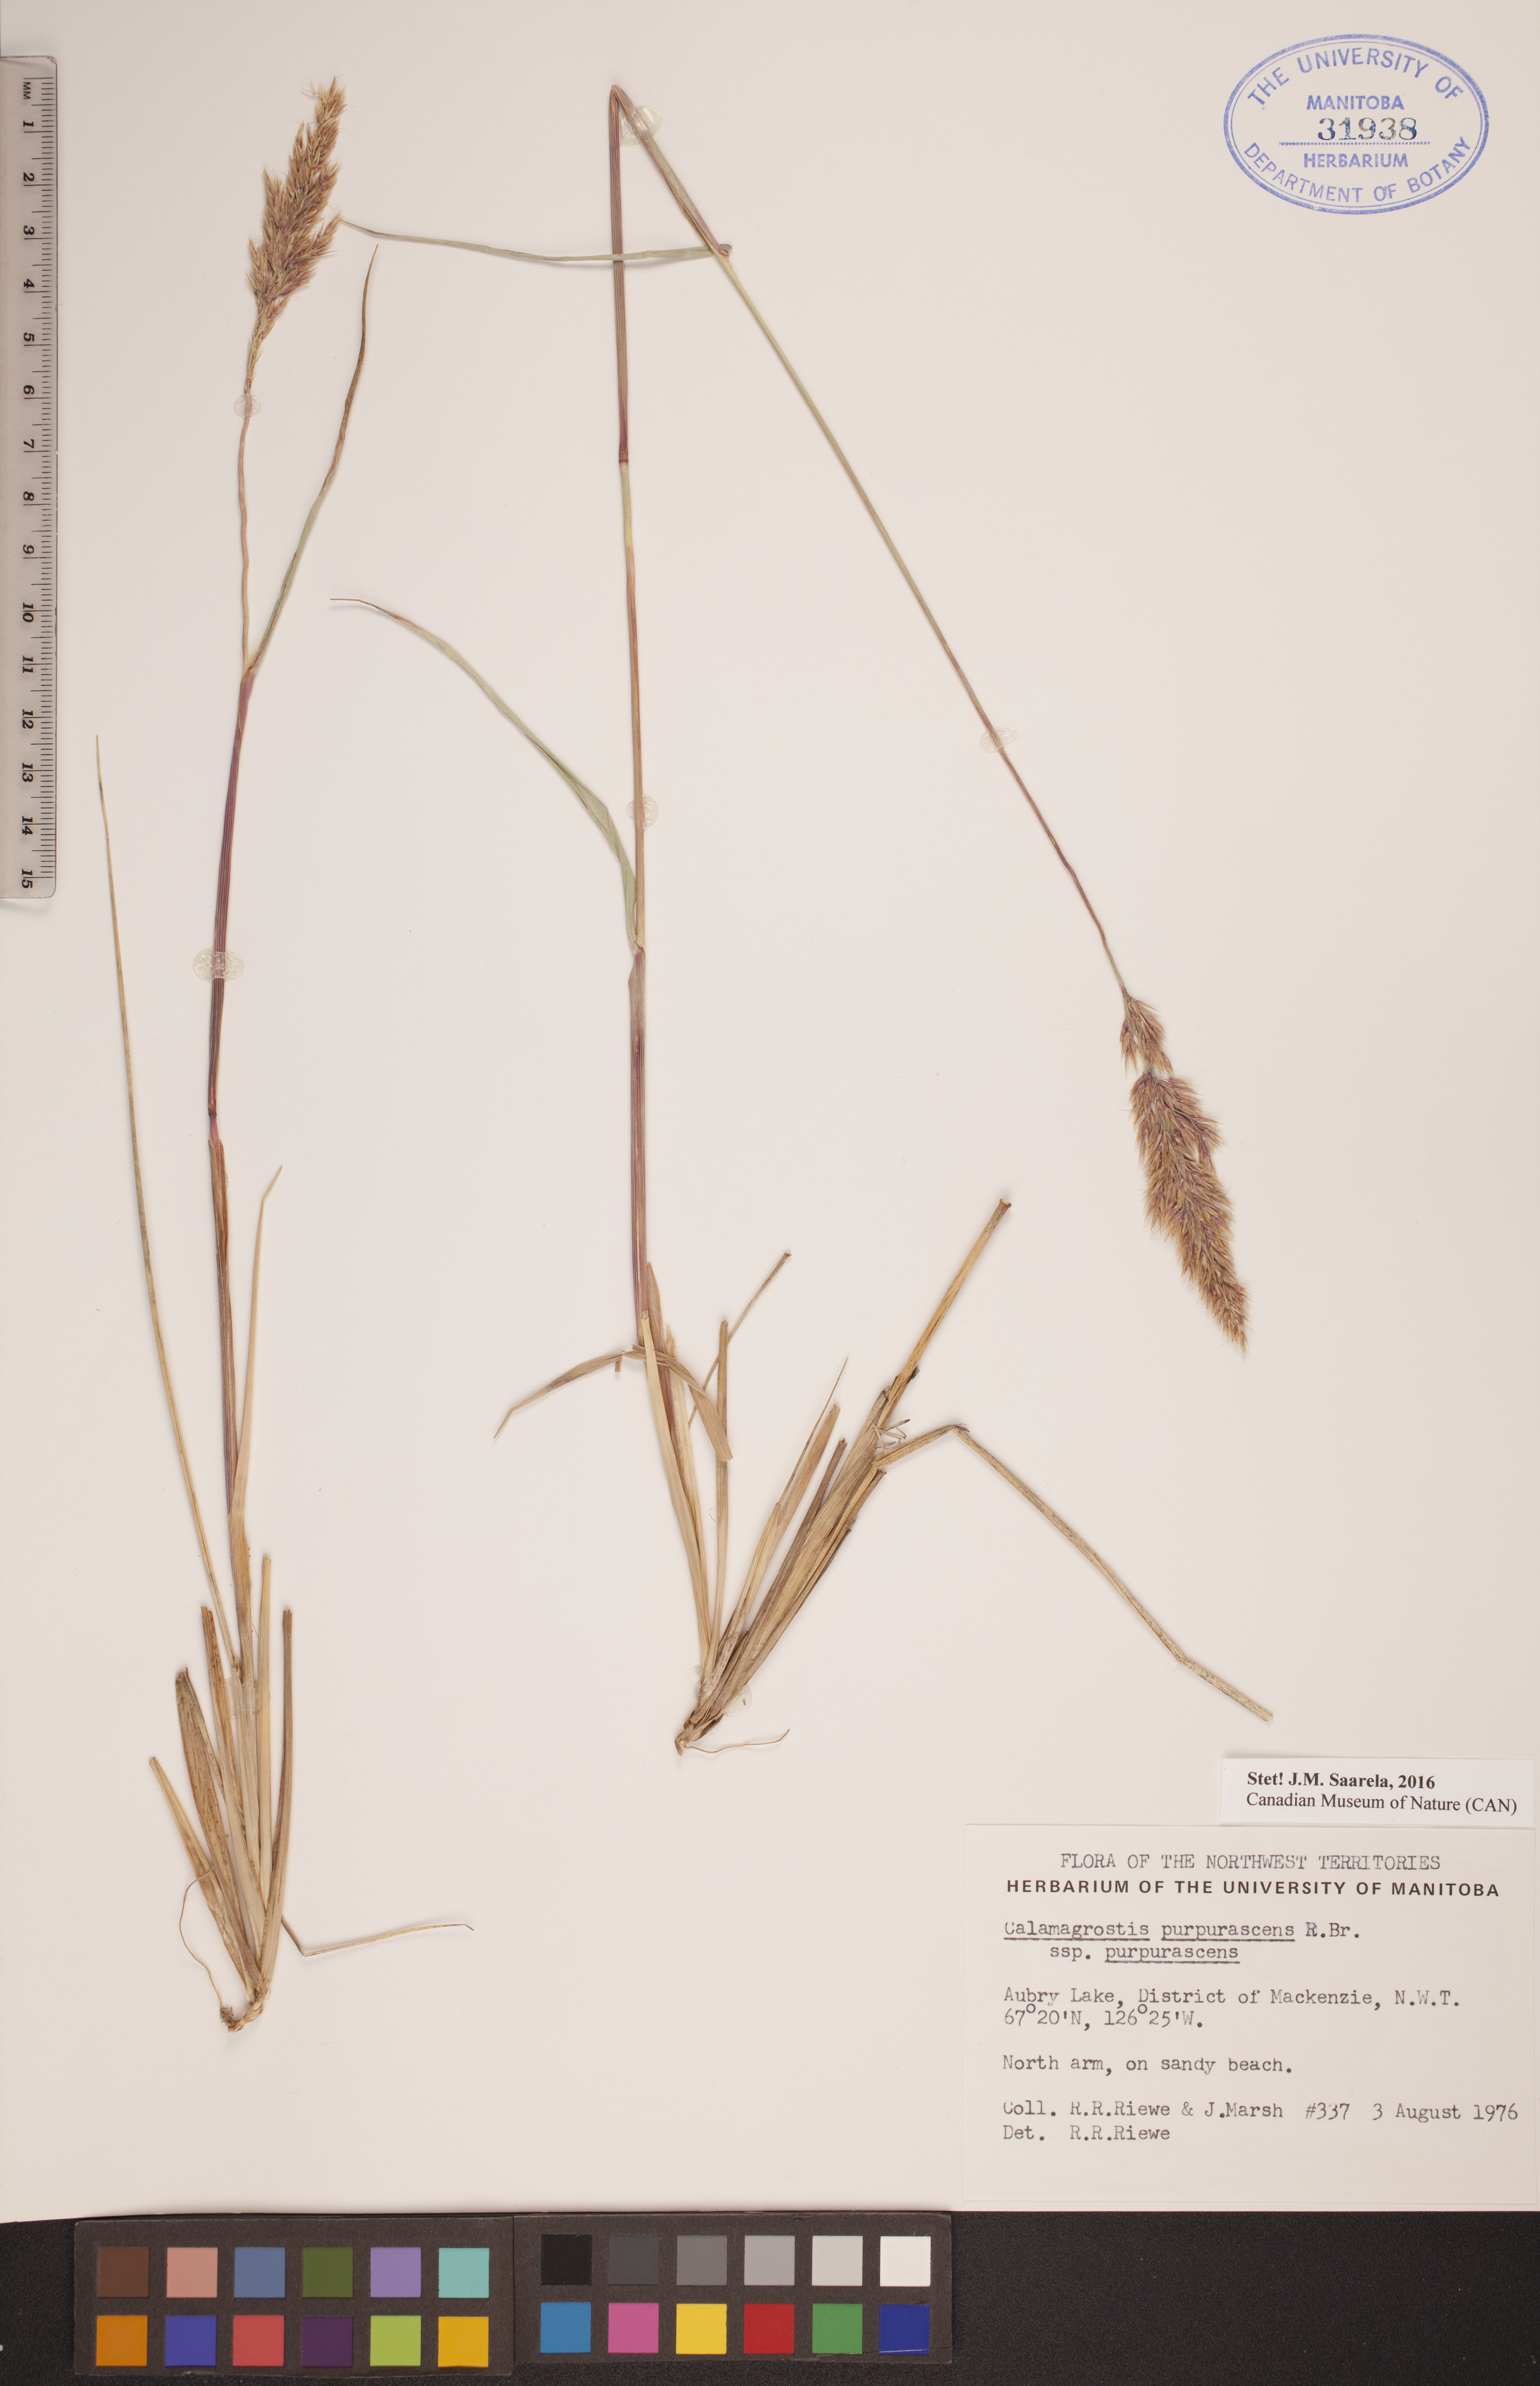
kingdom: Plantae
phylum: Tracheophyta
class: Liliopsida
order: Poales
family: Poaceae
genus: Calamagrostis
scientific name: Calamagrostis purpurascens
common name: Purple reedgrass
